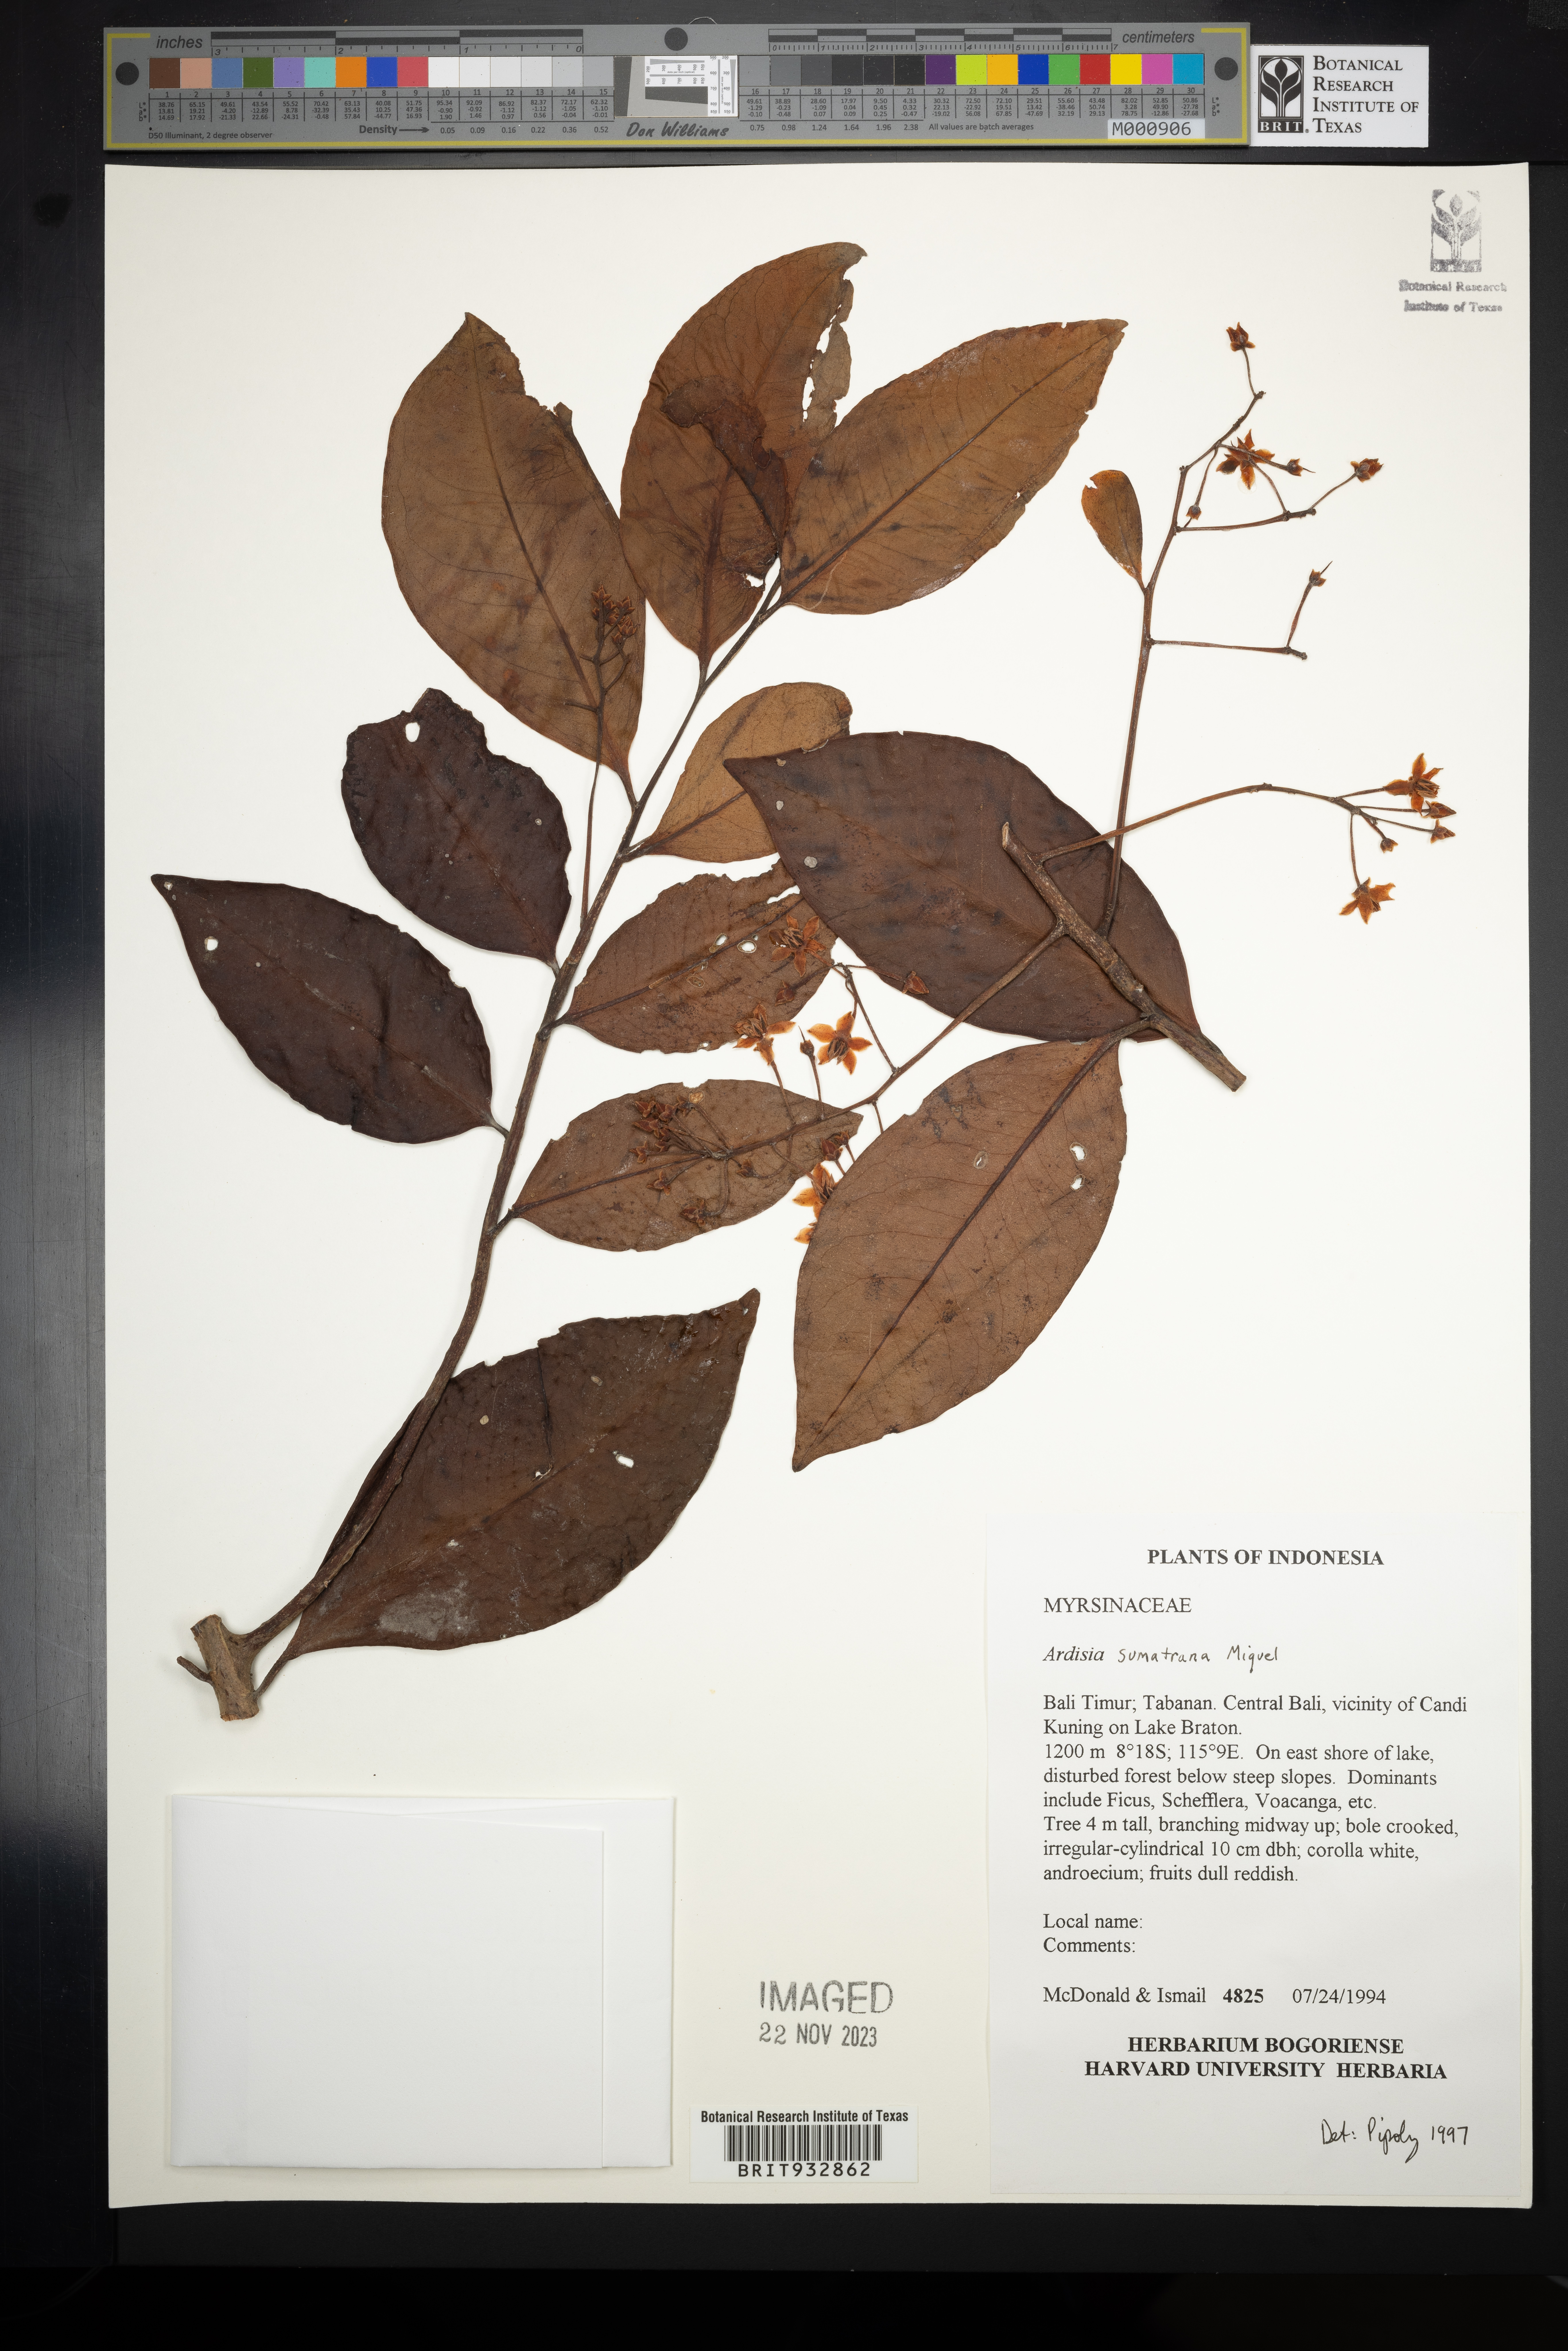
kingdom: Plantae
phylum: Tracheophyta
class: Magnoliopsida
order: Ericales
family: Primulaceae
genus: Ardisia
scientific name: Ardisia
